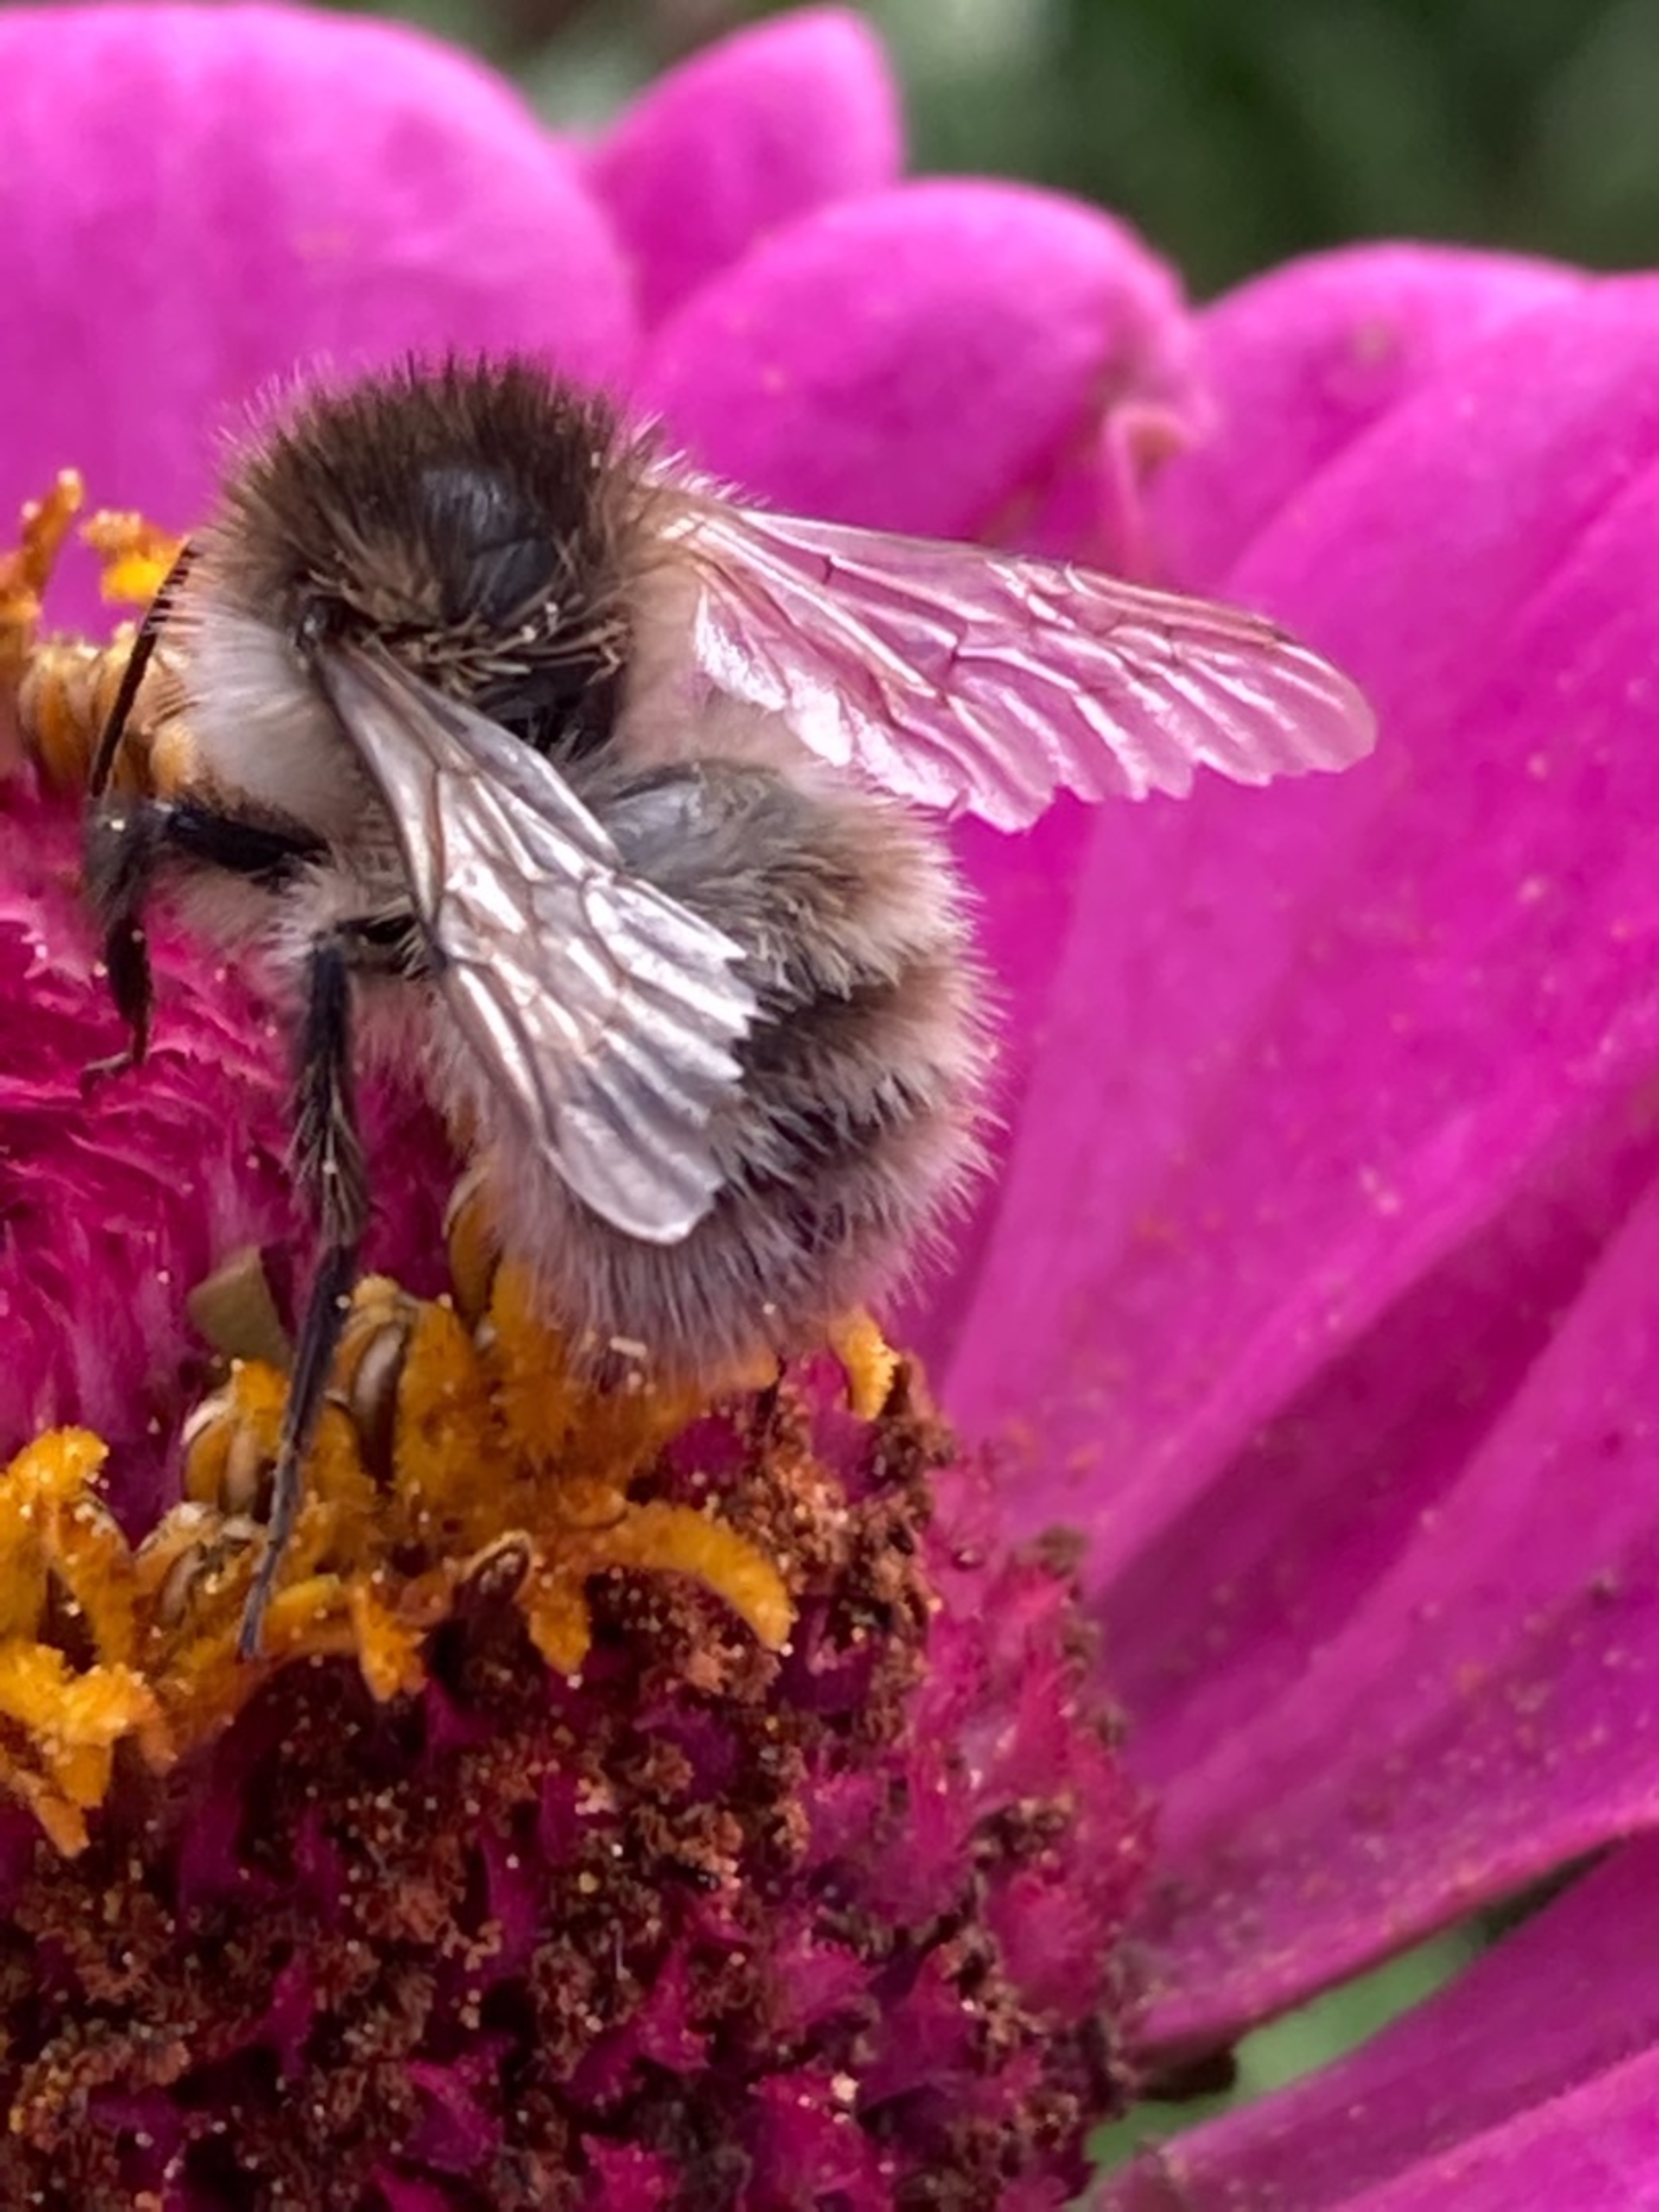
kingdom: Animalia
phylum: Arthropoda
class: Insecta
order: Hymenoptera
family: Apidae
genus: Bombus
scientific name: Bombus pascuorum
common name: Agerhumle
